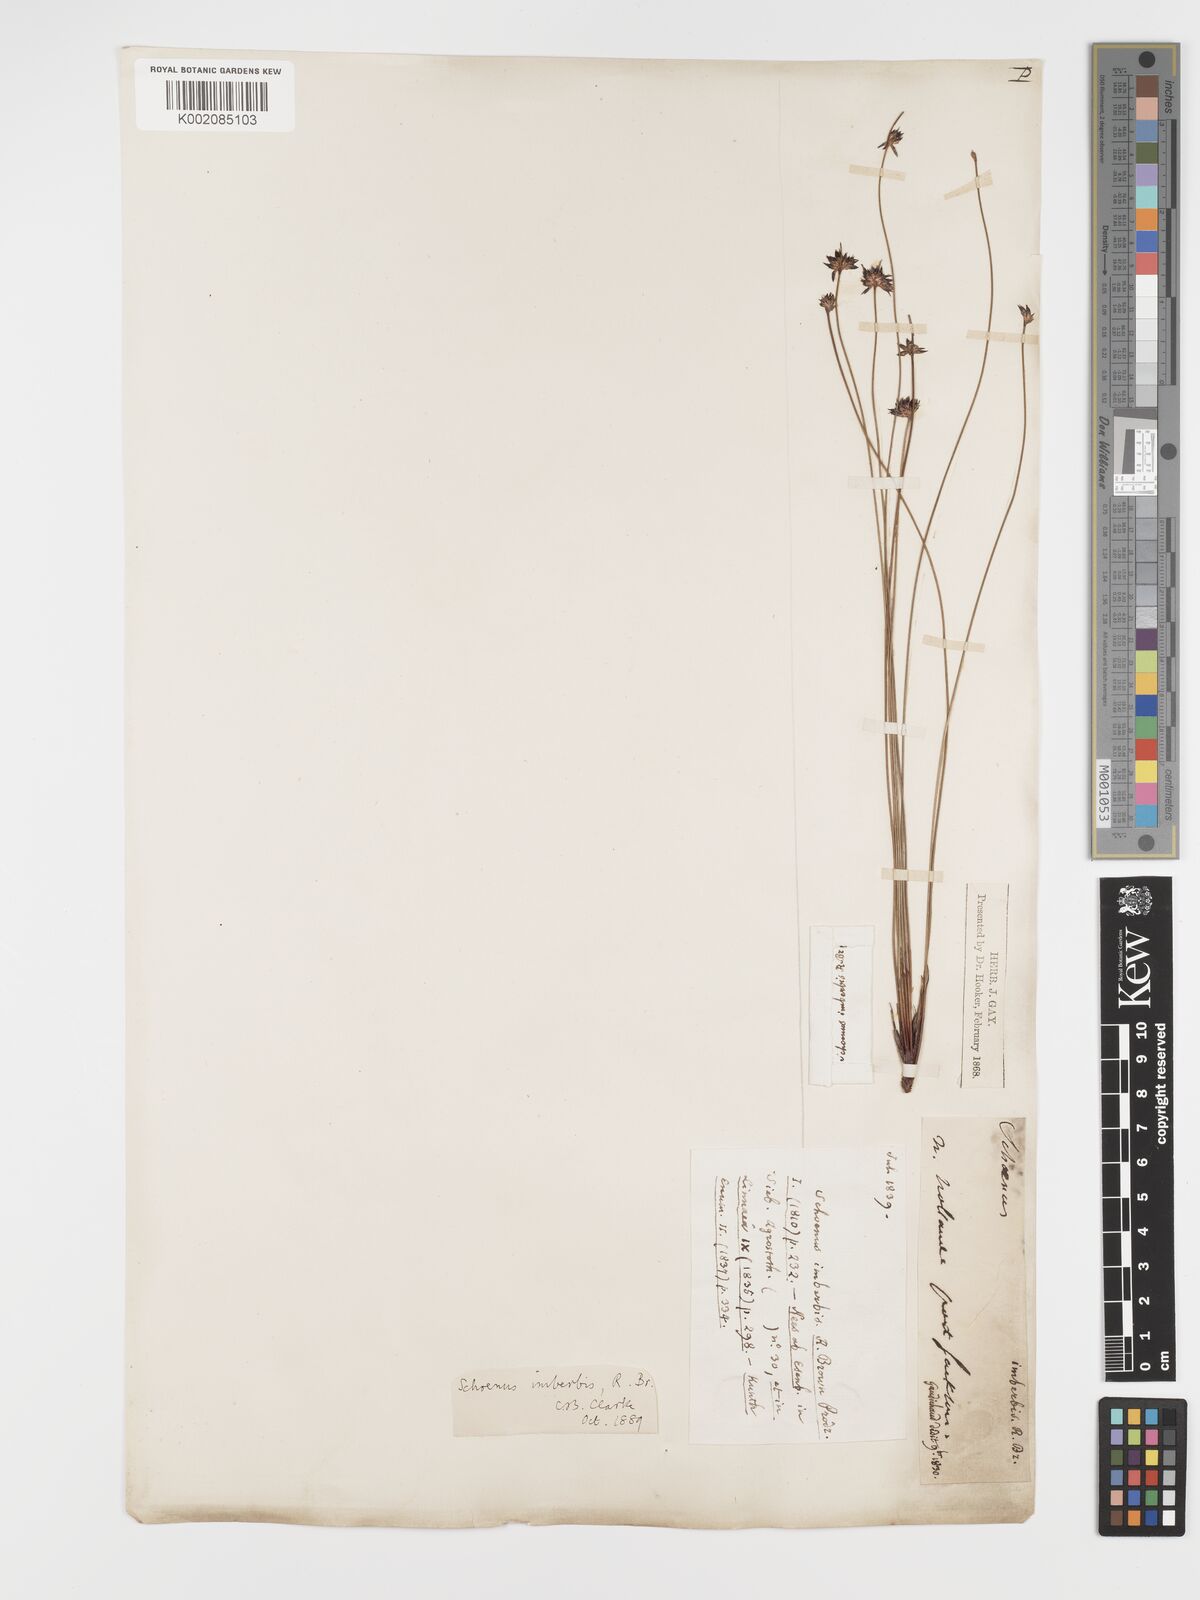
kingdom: Plantae
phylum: Tracheophyta
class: Liliopsida
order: Poales
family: Cyperaceae
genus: Schoenus
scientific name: Schoenus imberbis
